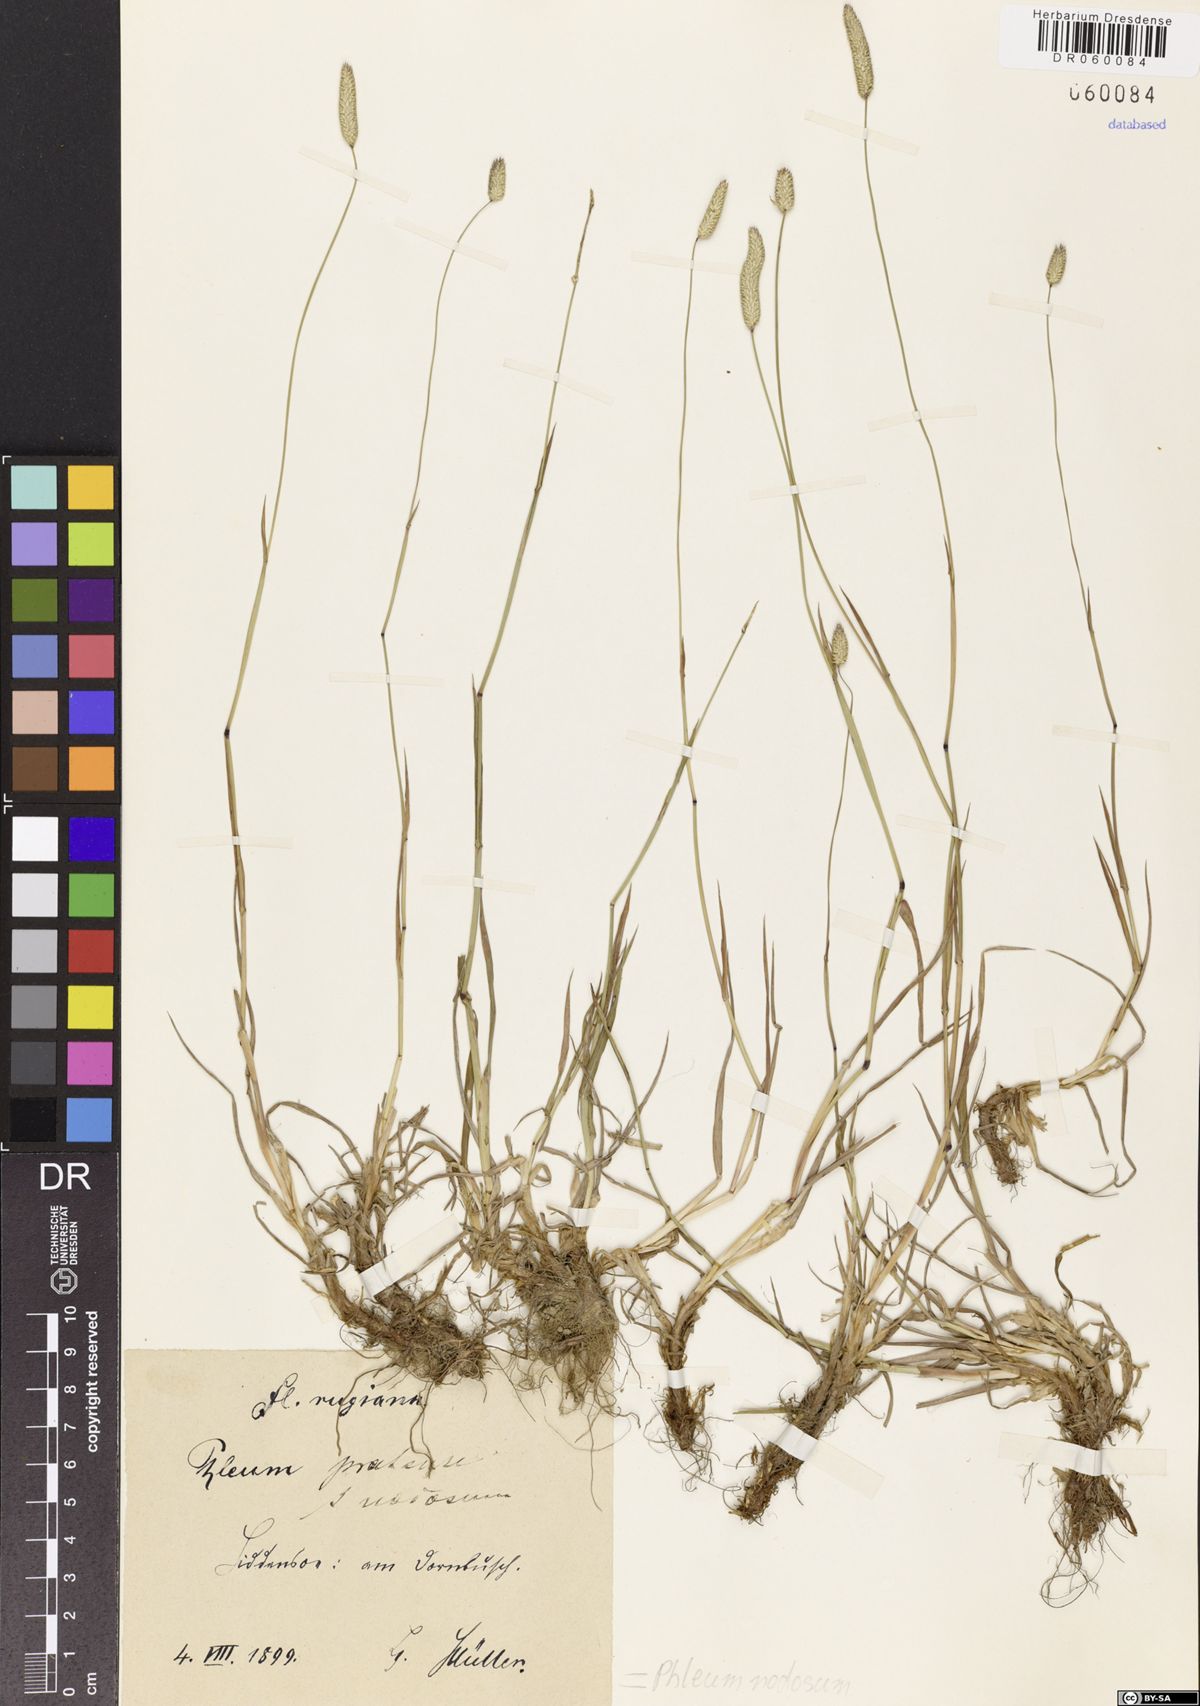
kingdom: Plantae
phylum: Tracheophyta
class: Liliopsida
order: Poales
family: Poaceae
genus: Phleum
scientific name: Phleum pratense
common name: Timothy grass
